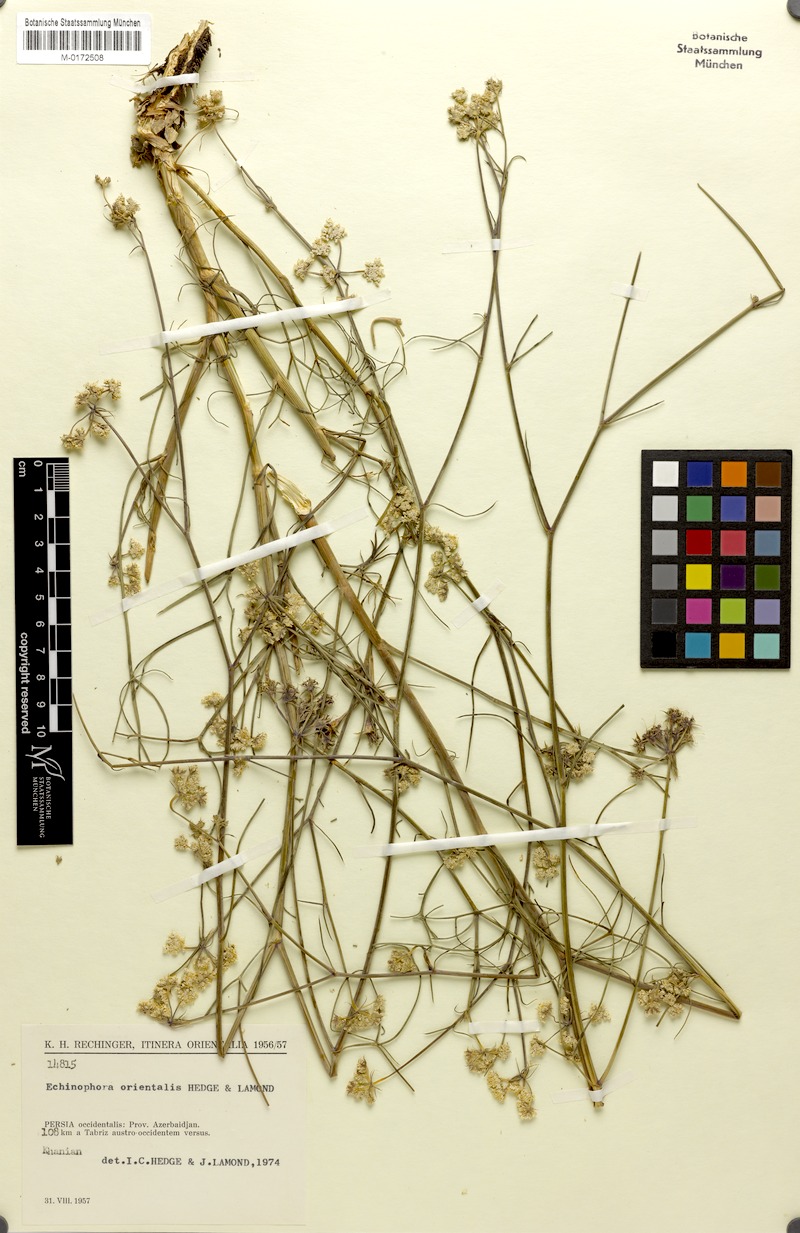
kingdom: Plantae
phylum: Tracheophyta
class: Magnoliopsida
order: Apiales
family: Apiaceae
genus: Echinophora
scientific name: Echinophora orientalis
